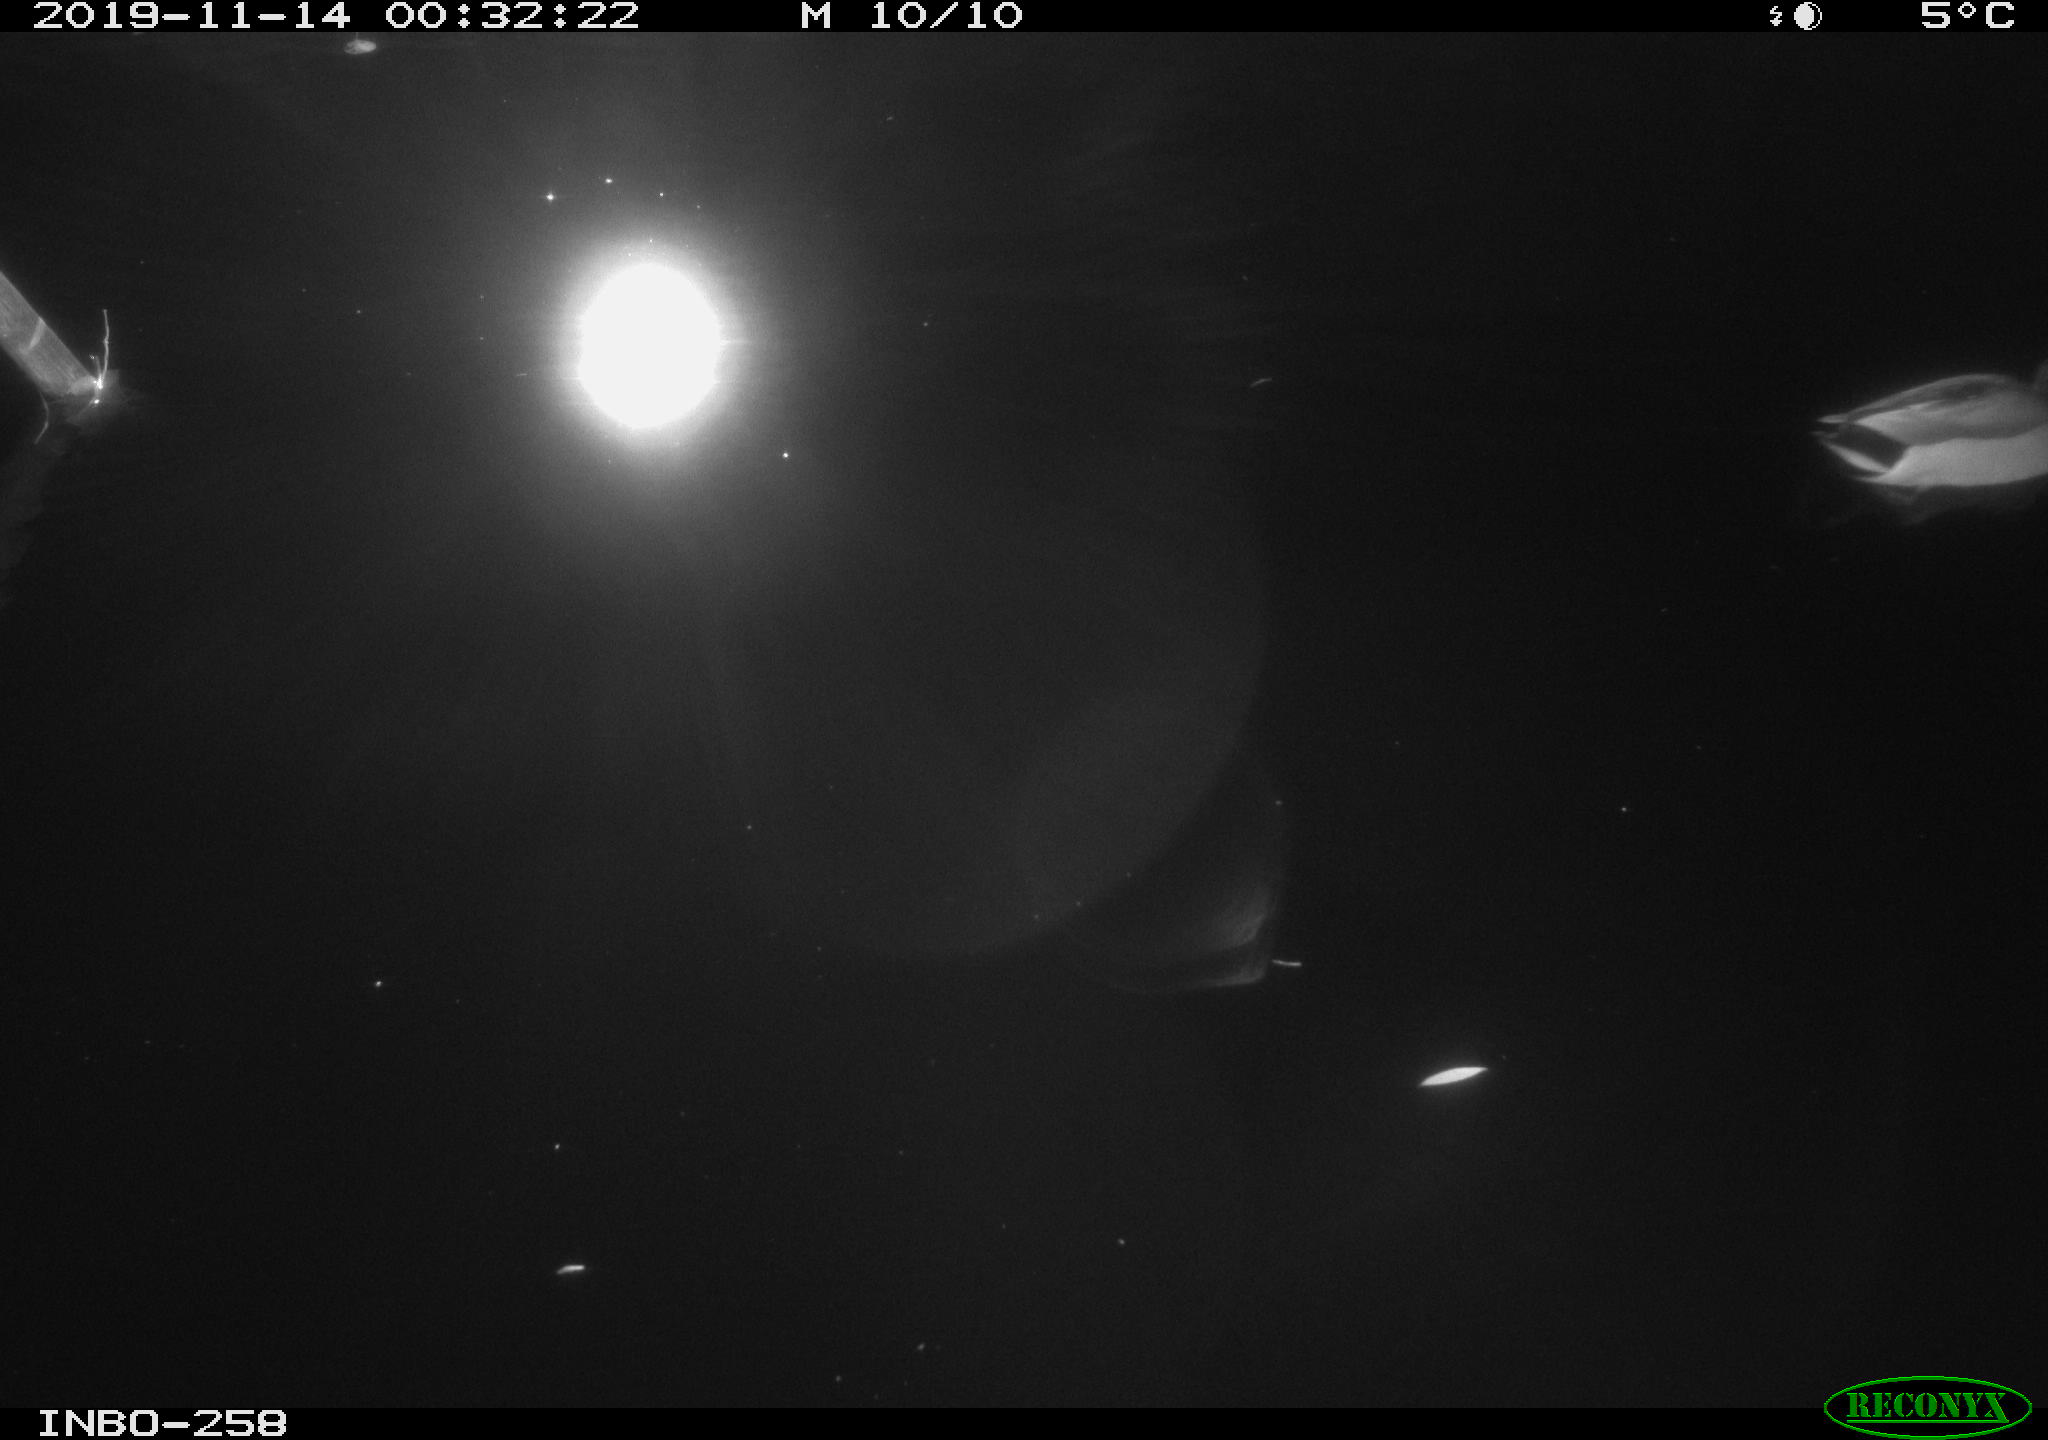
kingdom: Animalia
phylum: Chordata
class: Aves
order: Anseriformes
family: Anatidae
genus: Anas
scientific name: Anas platyrhynchos
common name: Mallard
